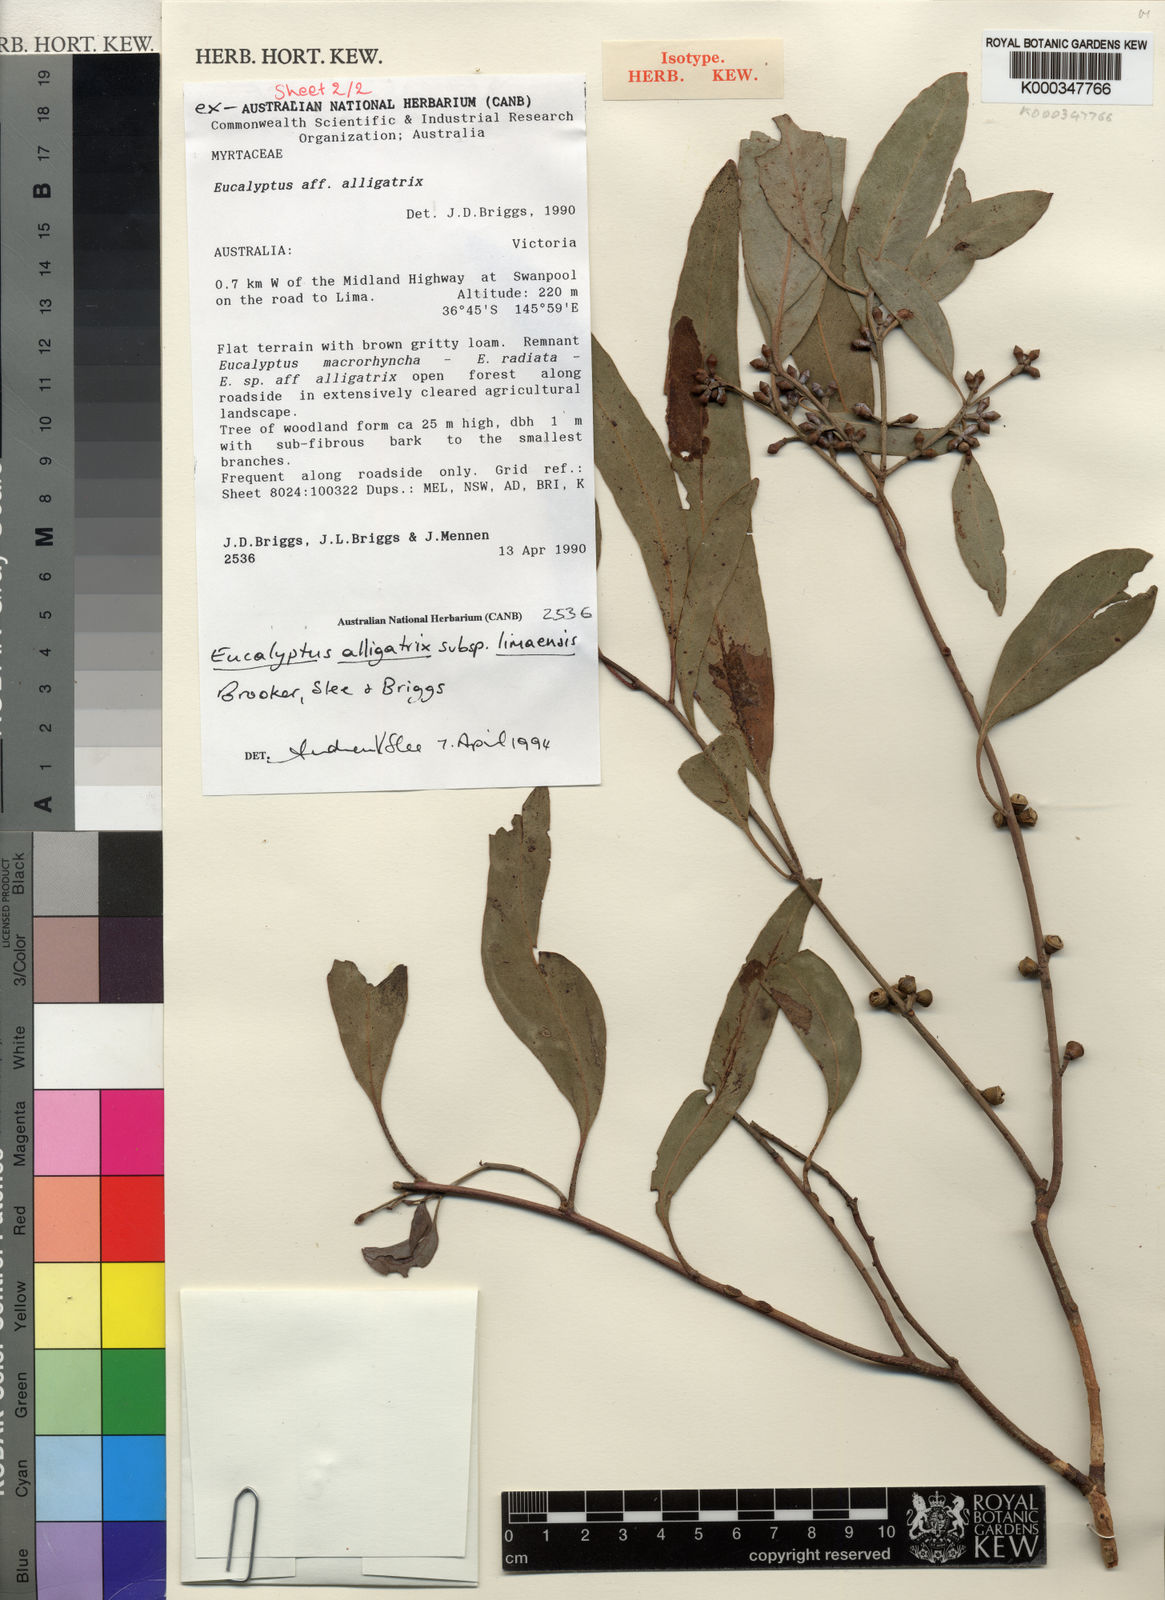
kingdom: Plantae
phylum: Tracheophyta
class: Magnoliopsida
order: Myrtales
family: Myrtaceae
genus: Eucalyptus
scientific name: Eucalyptus alligatrix
